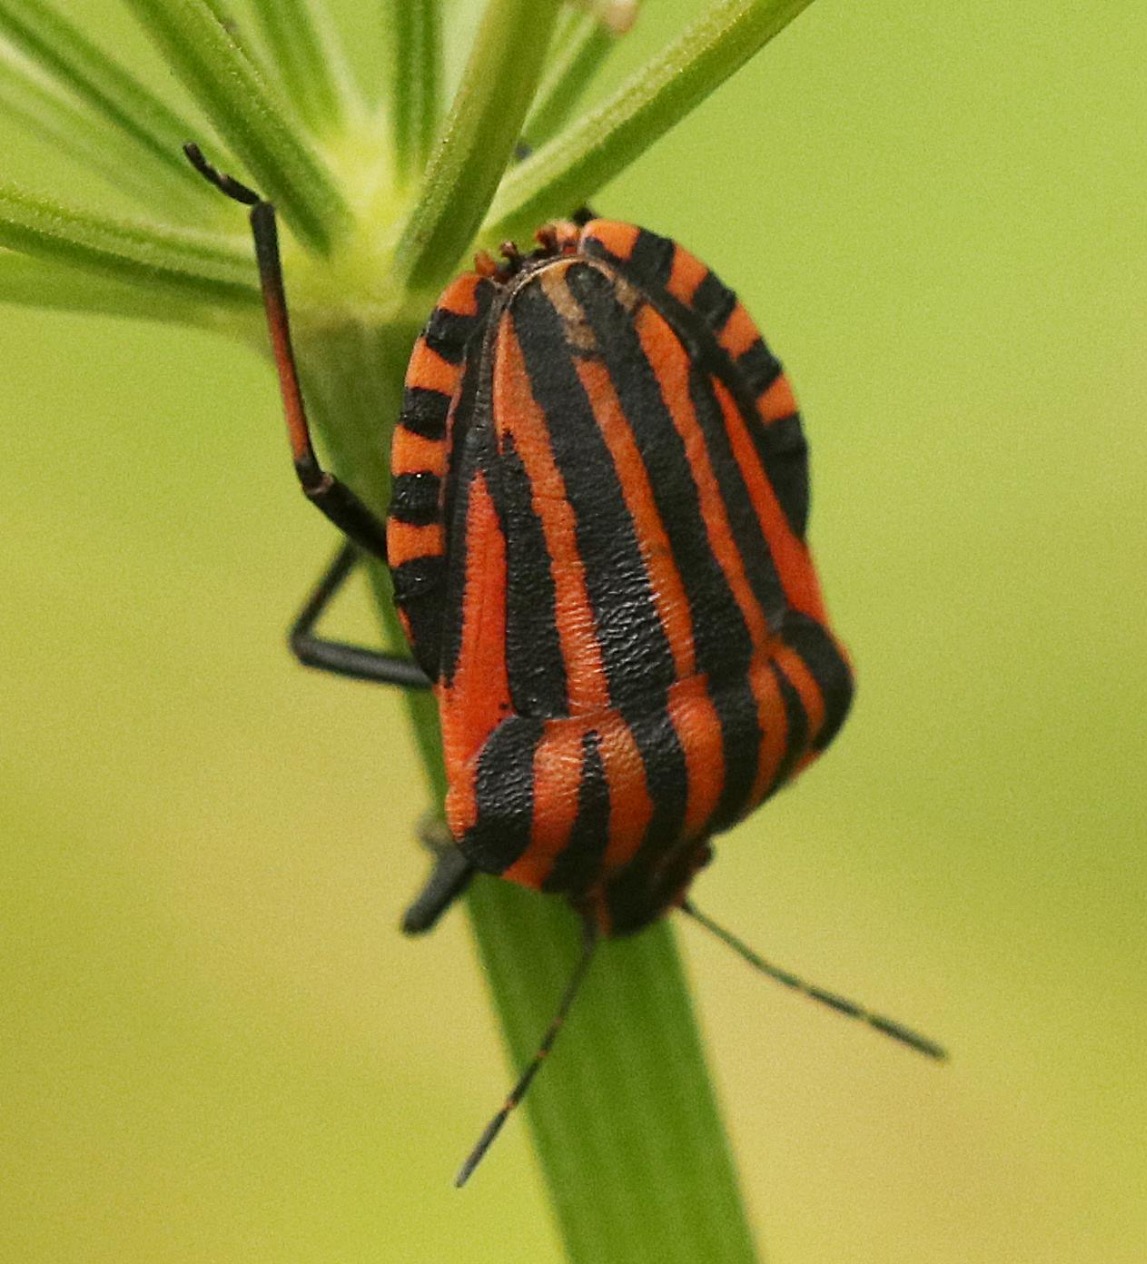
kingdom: Animalia
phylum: Arthropoda
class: Insecta
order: Hemiptera
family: Pentatomidae
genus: Graphosoma
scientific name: Graphosoma italicum
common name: Stribetæge
